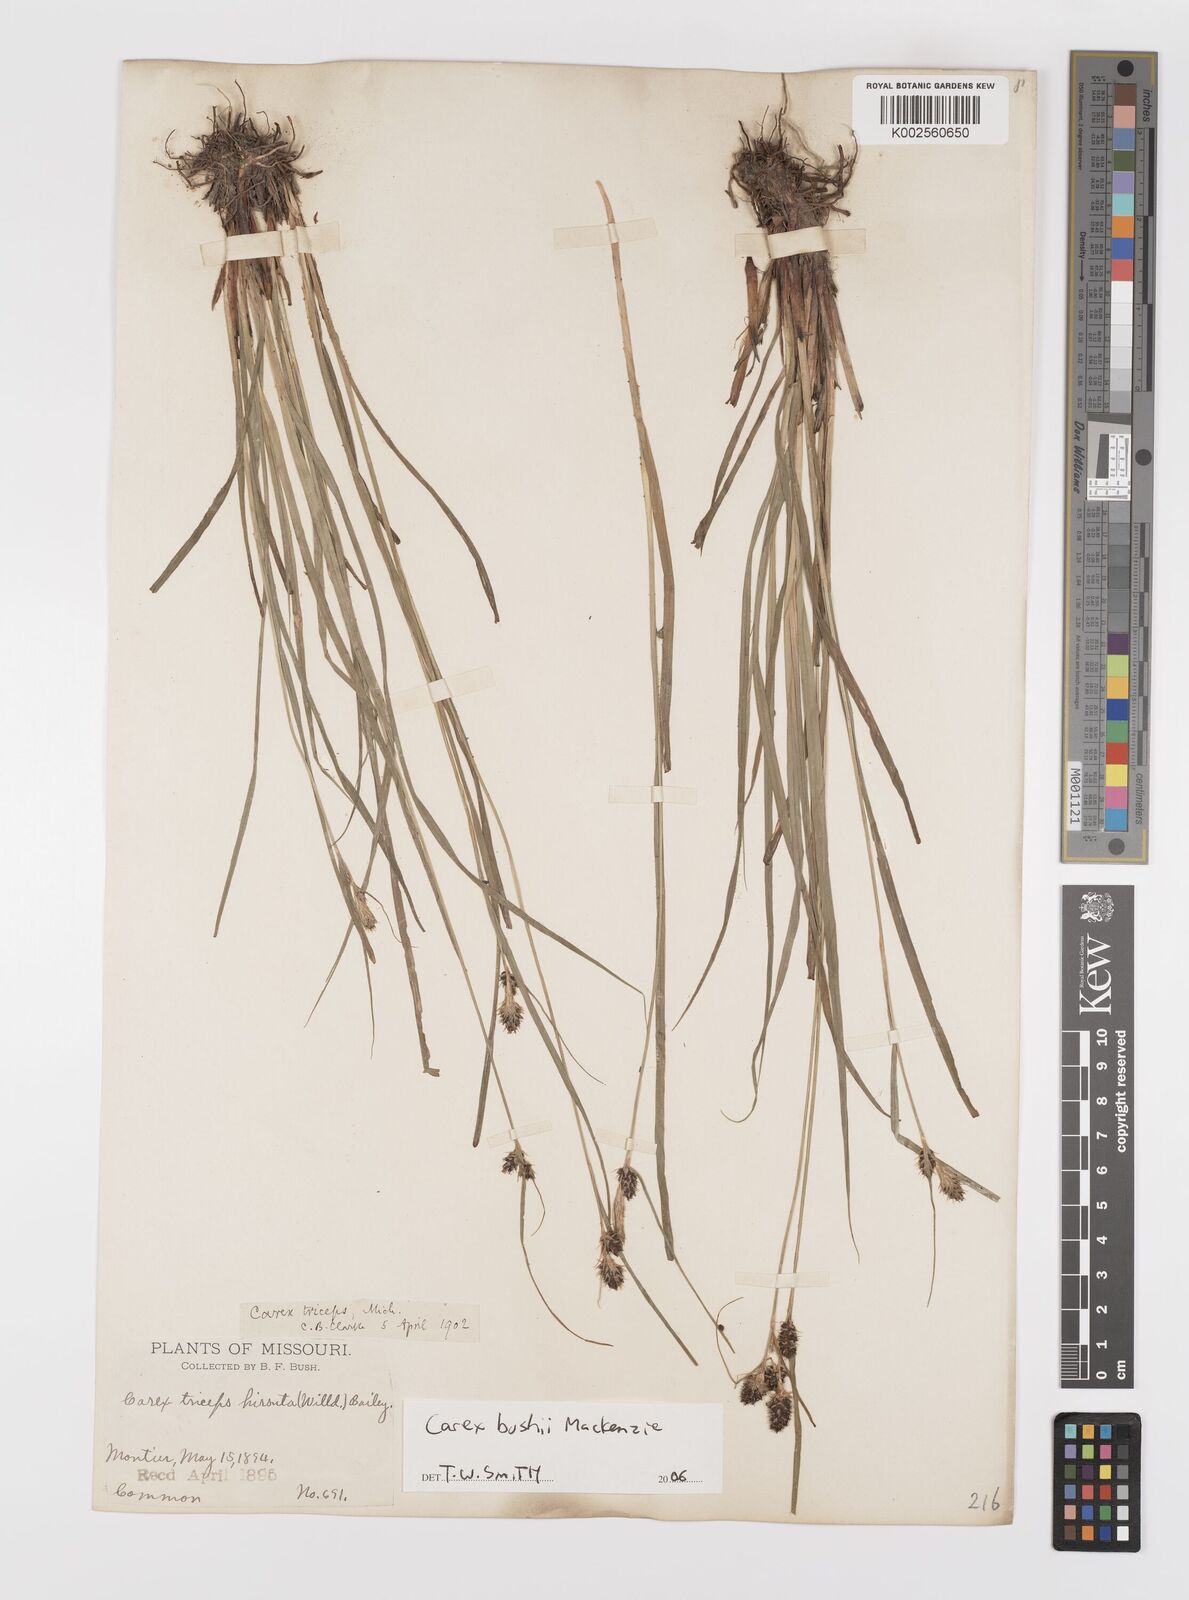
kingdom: Plantae
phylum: Tracheophyta
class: Liliopsida
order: Poales
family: Cyperaceae
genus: Carex
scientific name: Carex bushii
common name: Bush's sedge
